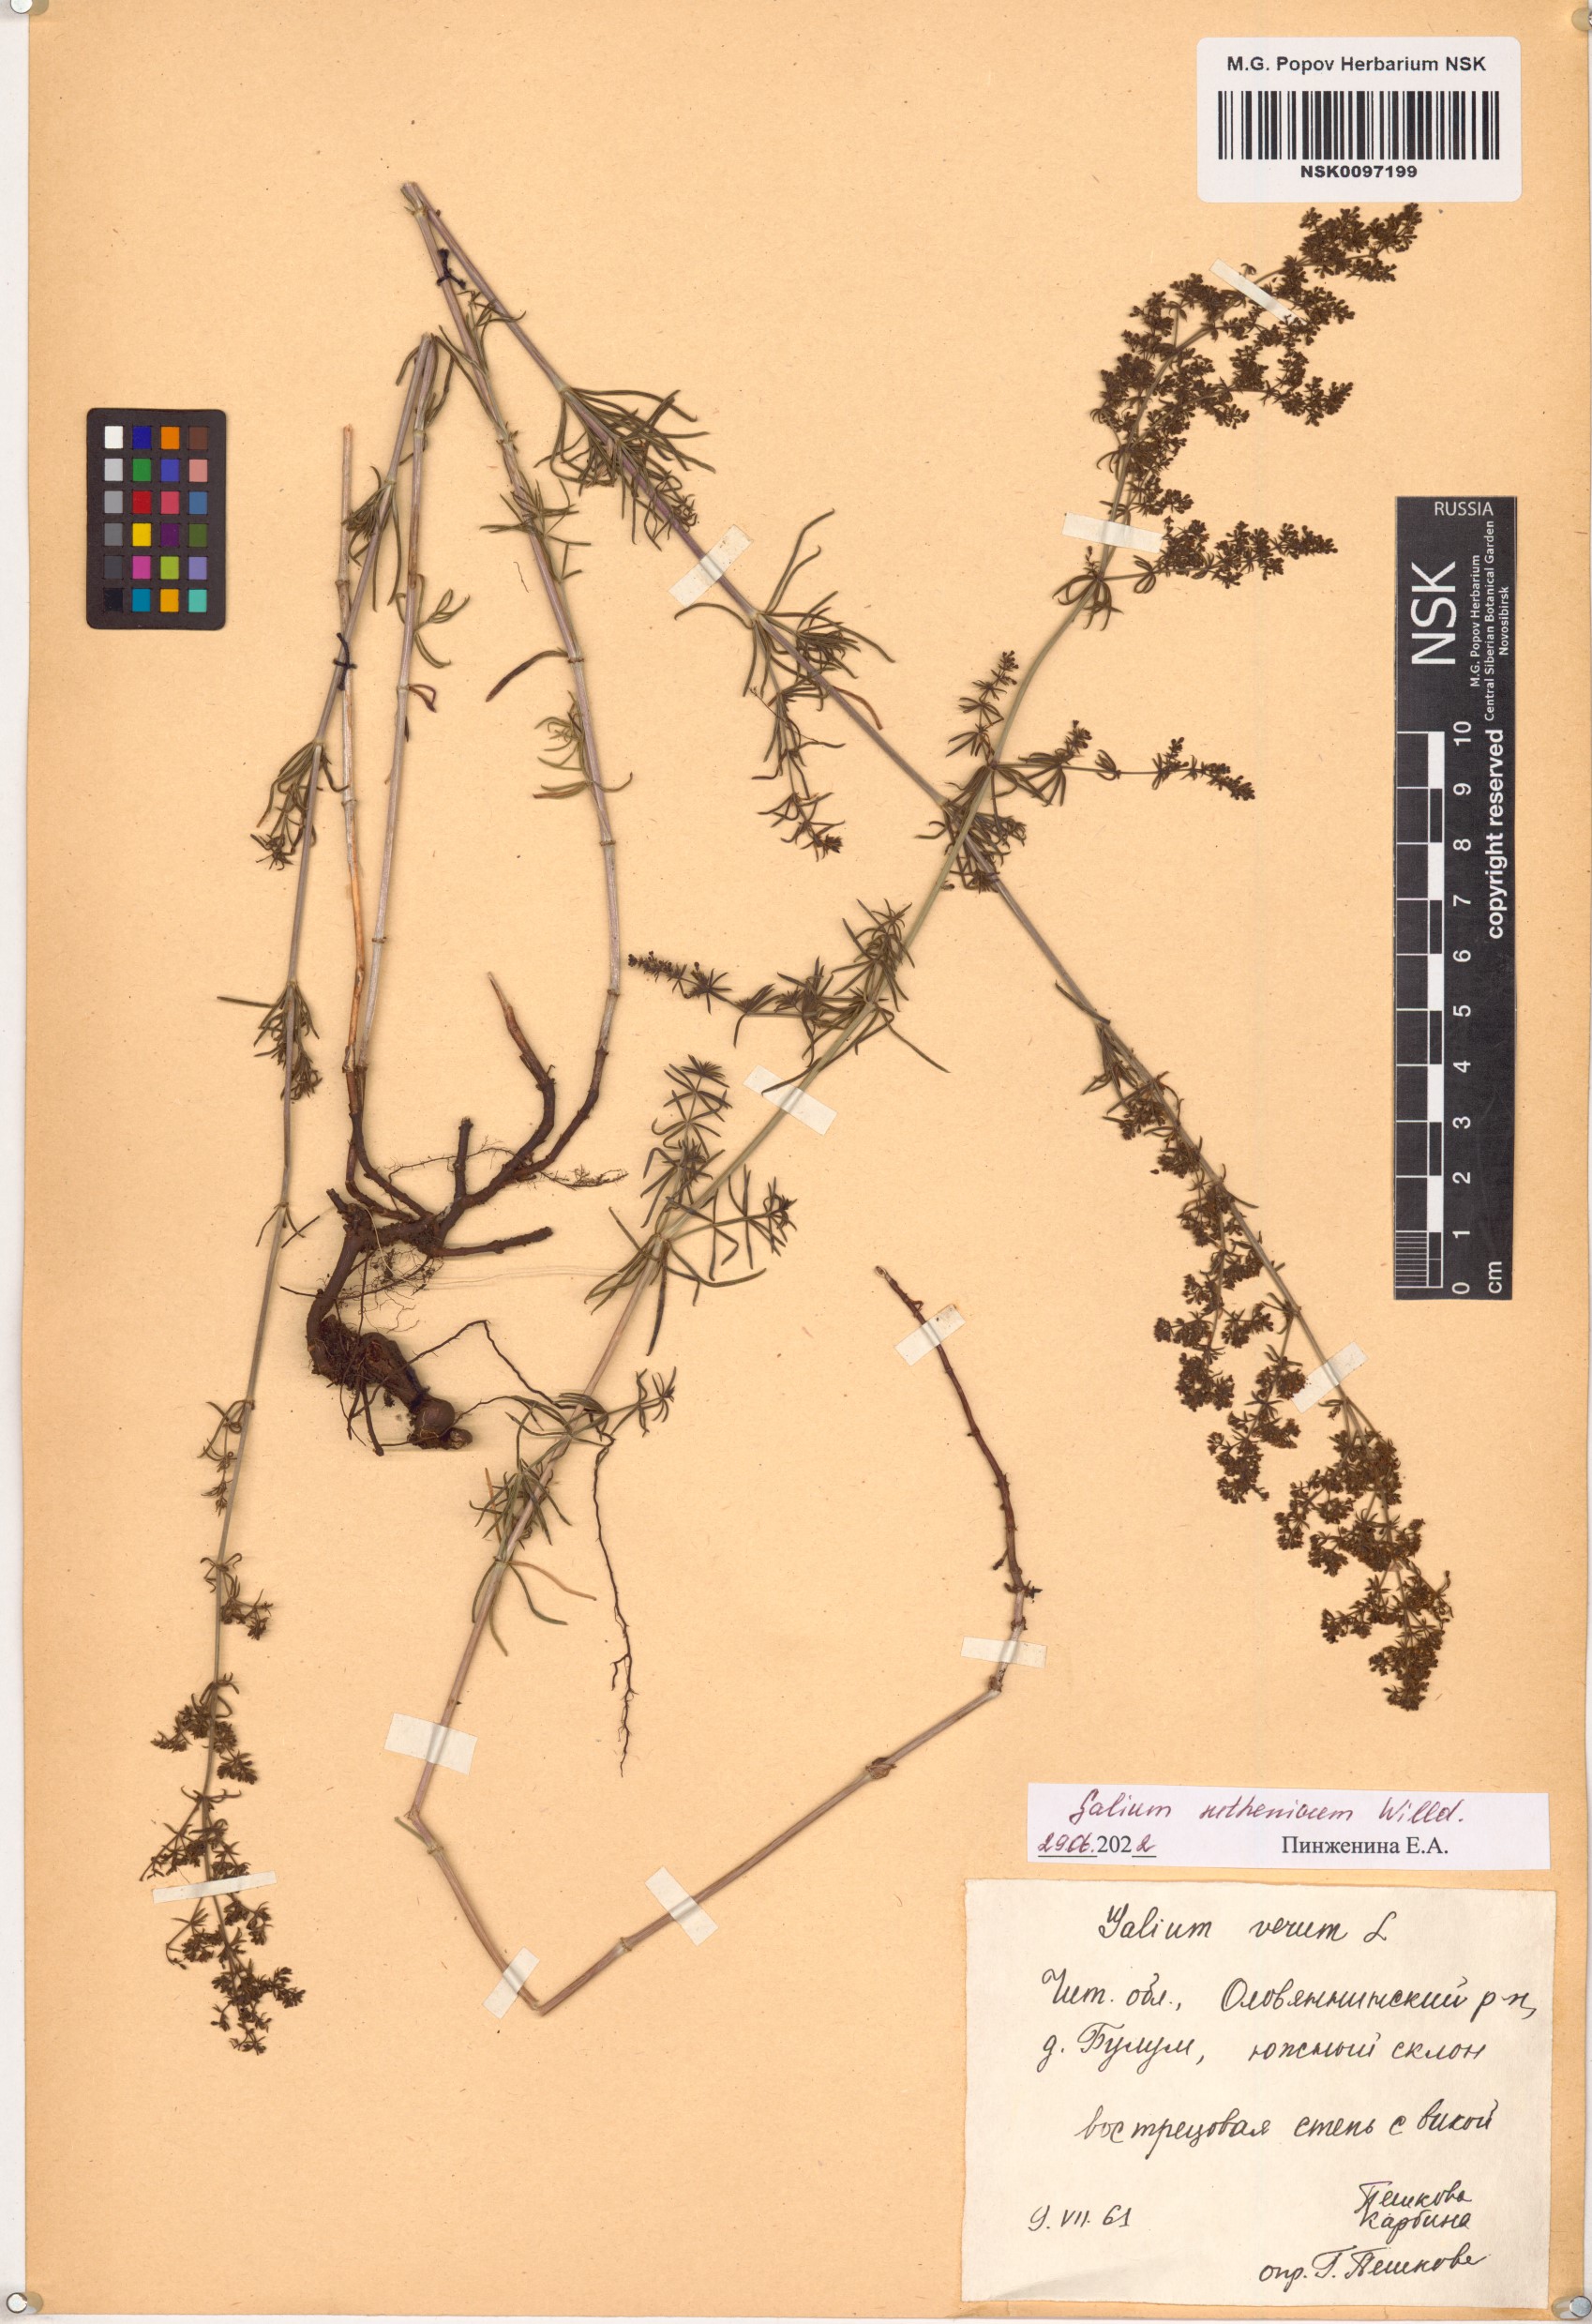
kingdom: Plantae
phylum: Tracheophyta
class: Magnoliopsida
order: Gentianales
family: Rubiaceae
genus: Galium
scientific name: Galium verum
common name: Lady's bedstraw
